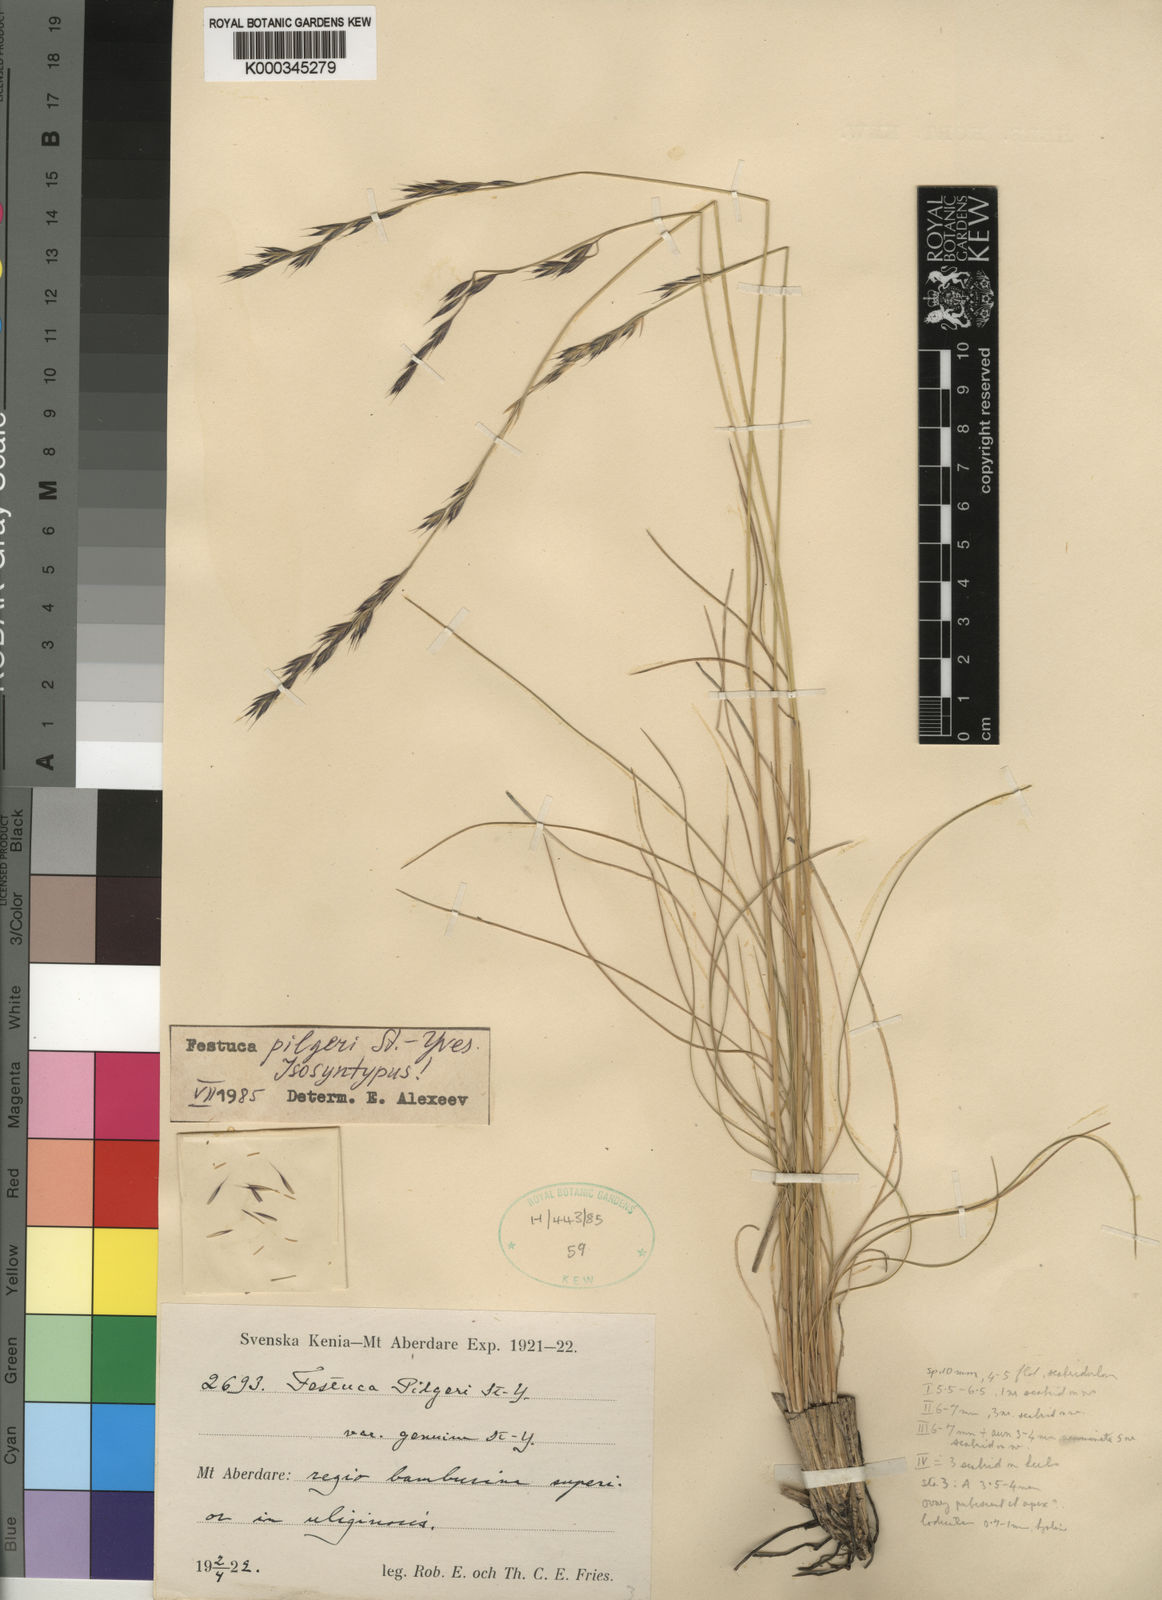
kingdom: Plantae
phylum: Tracheophyta
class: Liliopsida
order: Poales
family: Poaceae
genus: Festuca
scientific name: Festuca pilgeri
